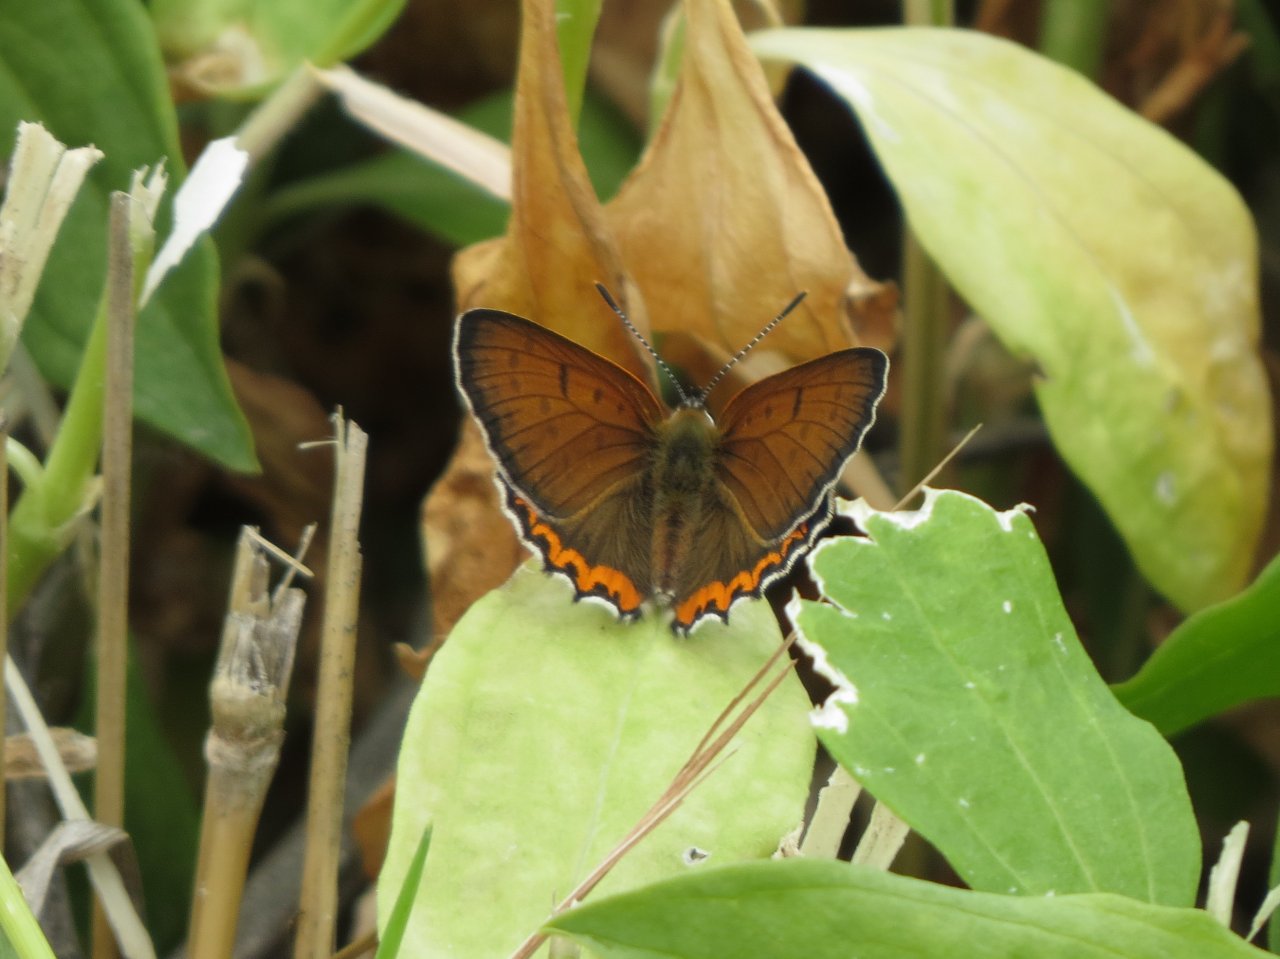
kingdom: Animalia
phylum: Arthropoda
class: Insecta
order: Lepidoptera
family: Sesiidae
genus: Sesia
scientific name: Sesia Lycaena hyllus
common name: Bronze Copper
